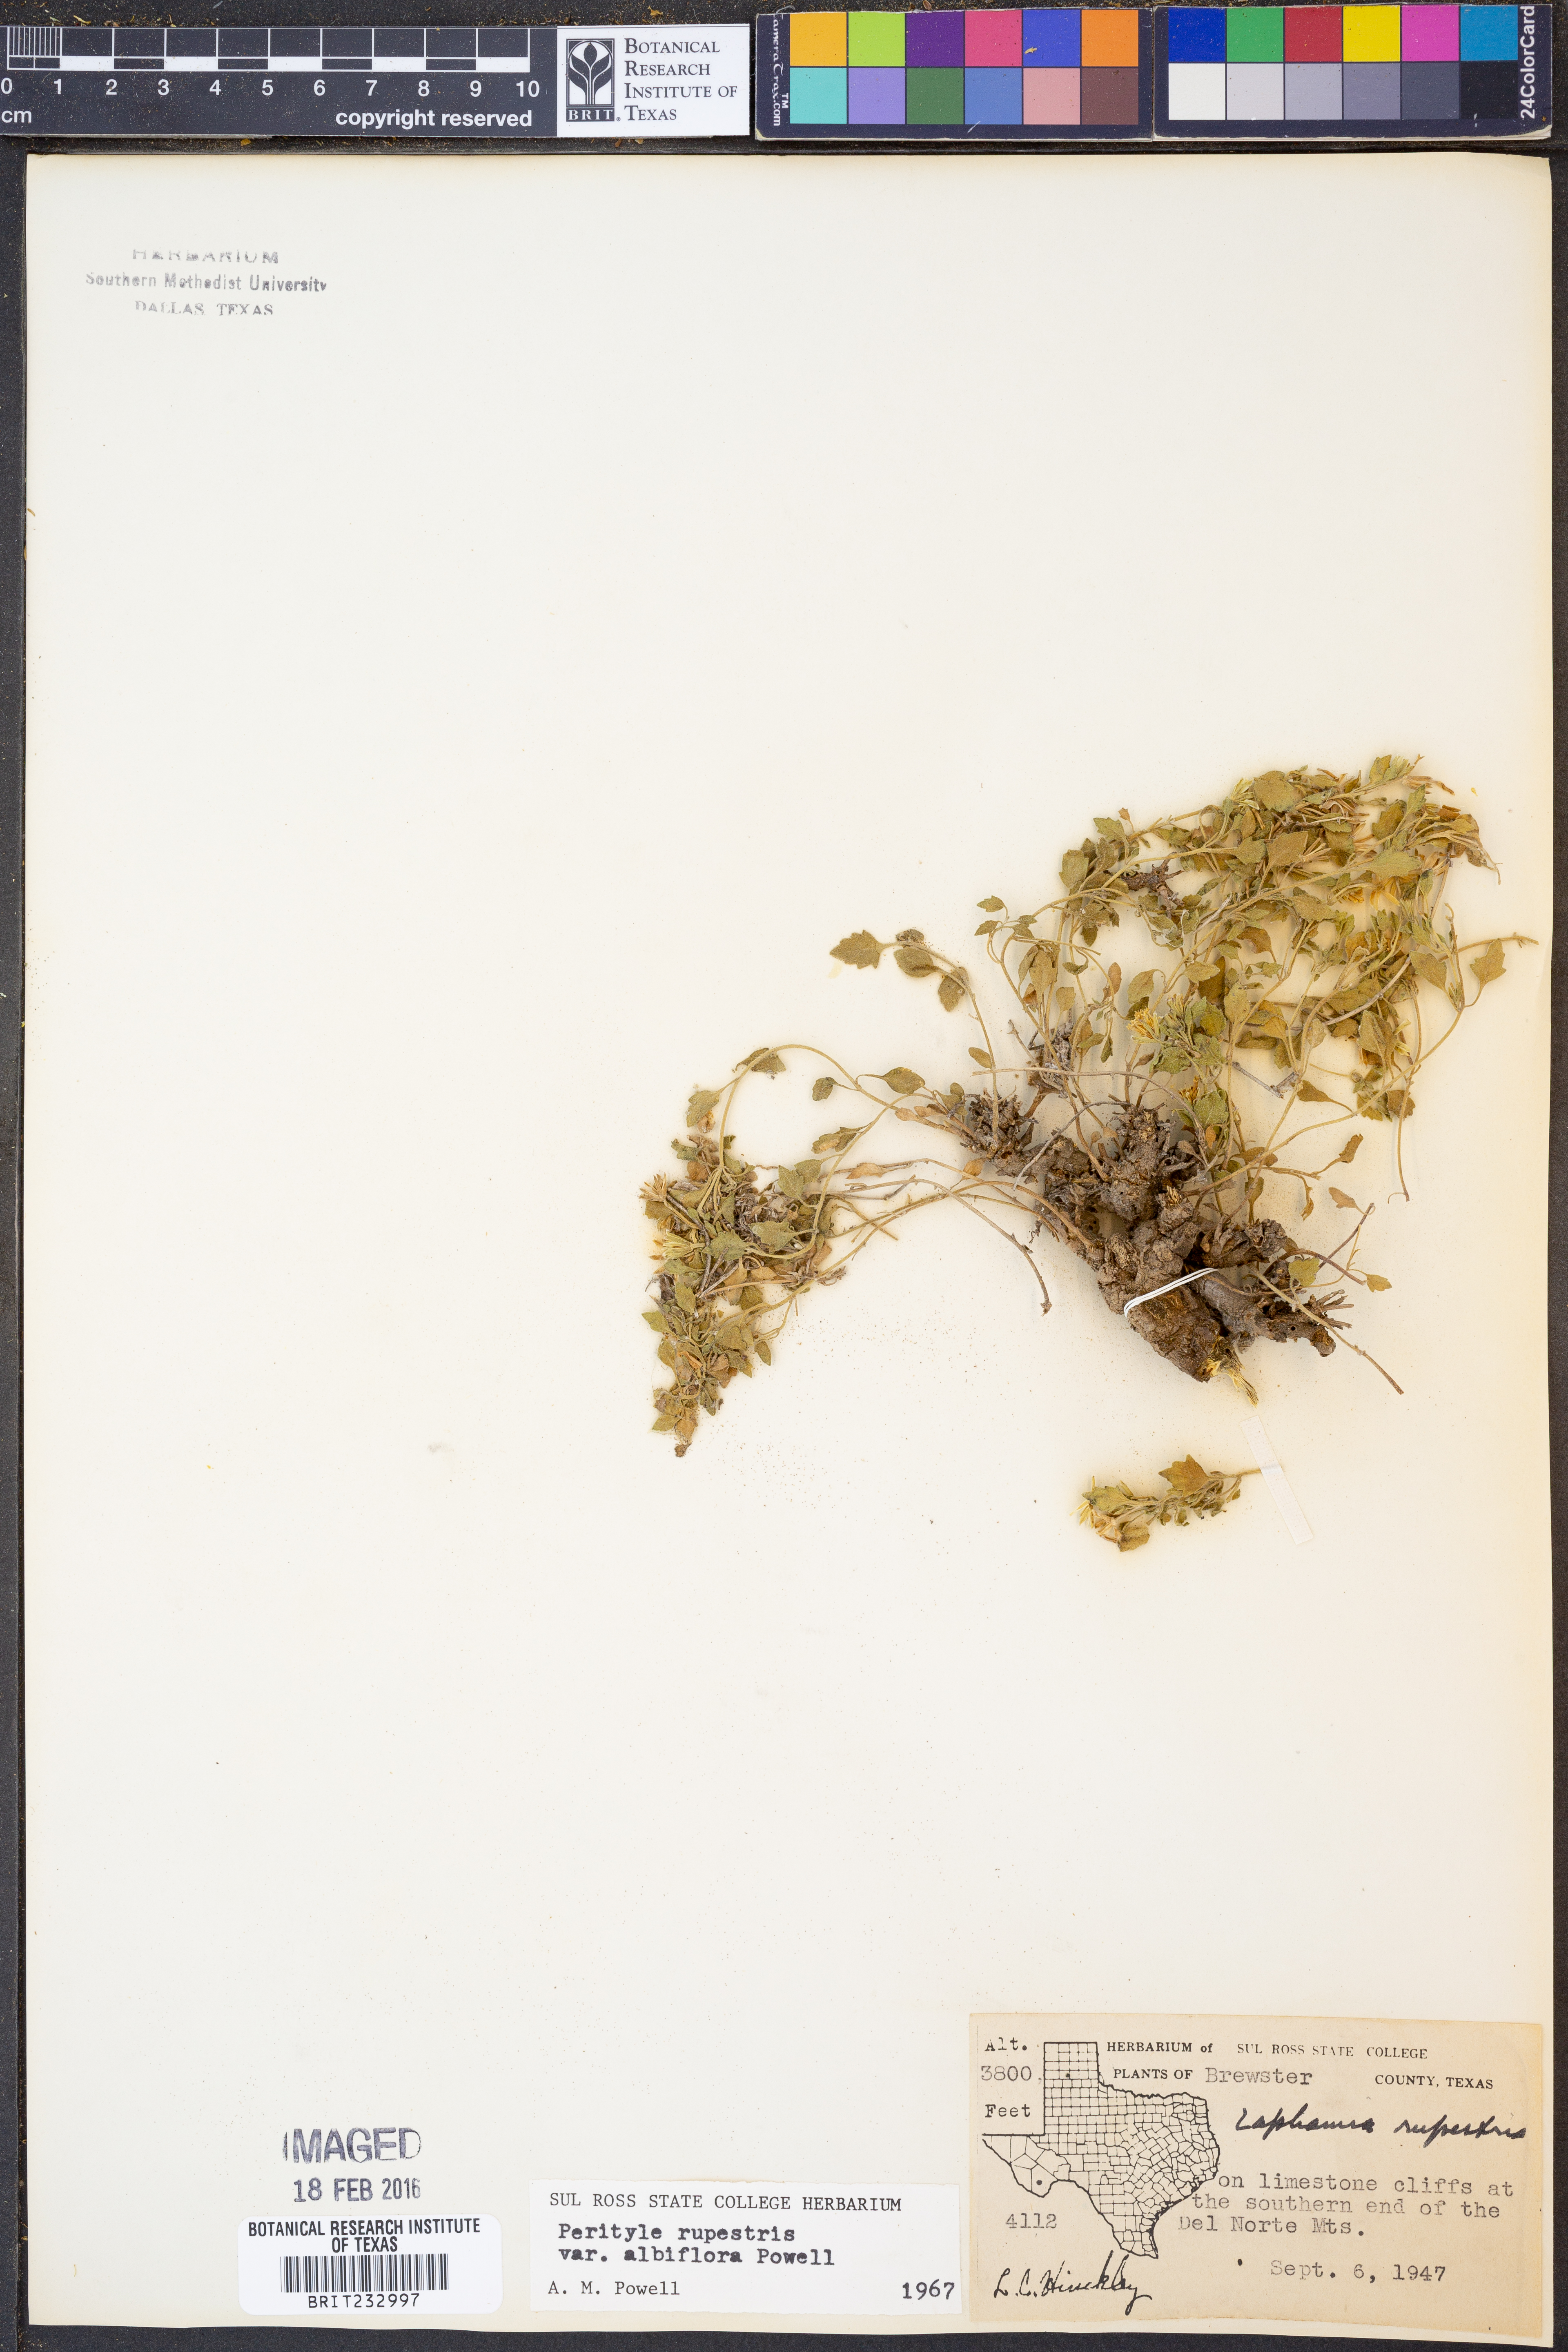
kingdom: Plantae
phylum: Tracheophyta
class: Magnoliopsida
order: Asterales
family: Asteraceae
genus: Laphamia
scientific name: Laphamia rupestris
